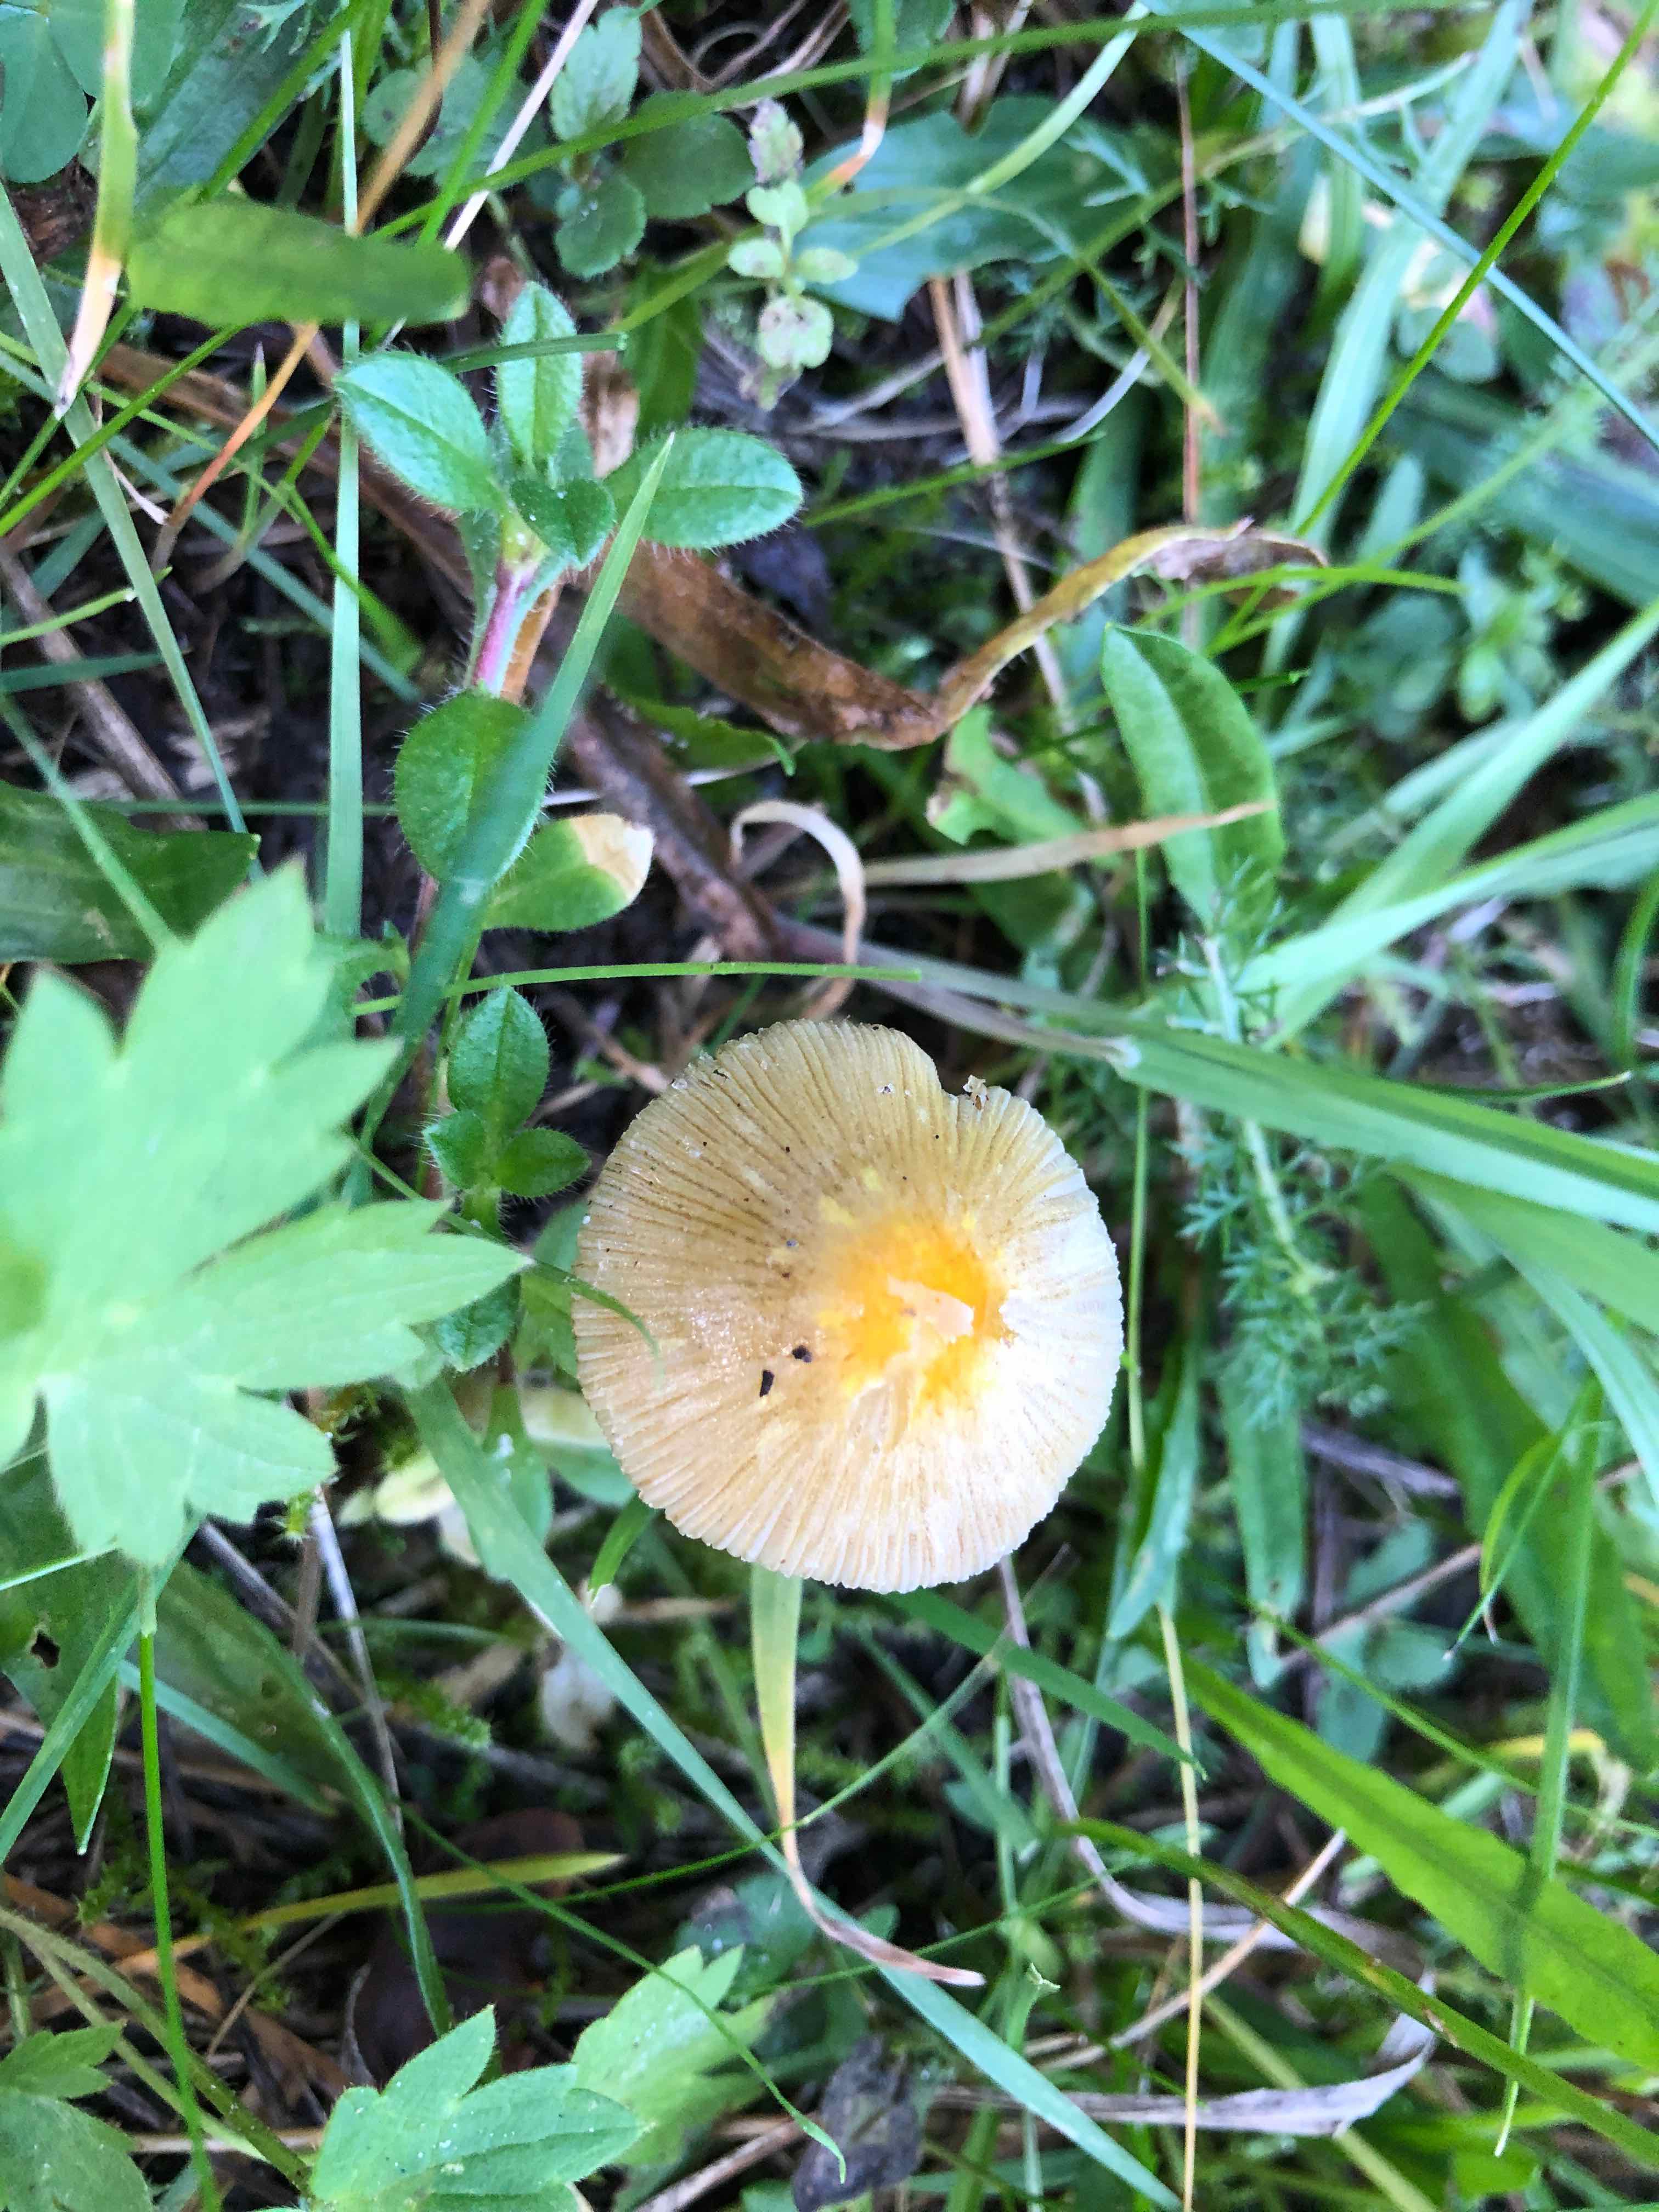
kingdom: Fungi
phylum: Basidiomycota
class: Agaricomycetes
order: Agaricales
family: Bolbitiaceae
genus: Bolbitius
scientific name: Bolbitius titubans
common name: almindelig gulhat
